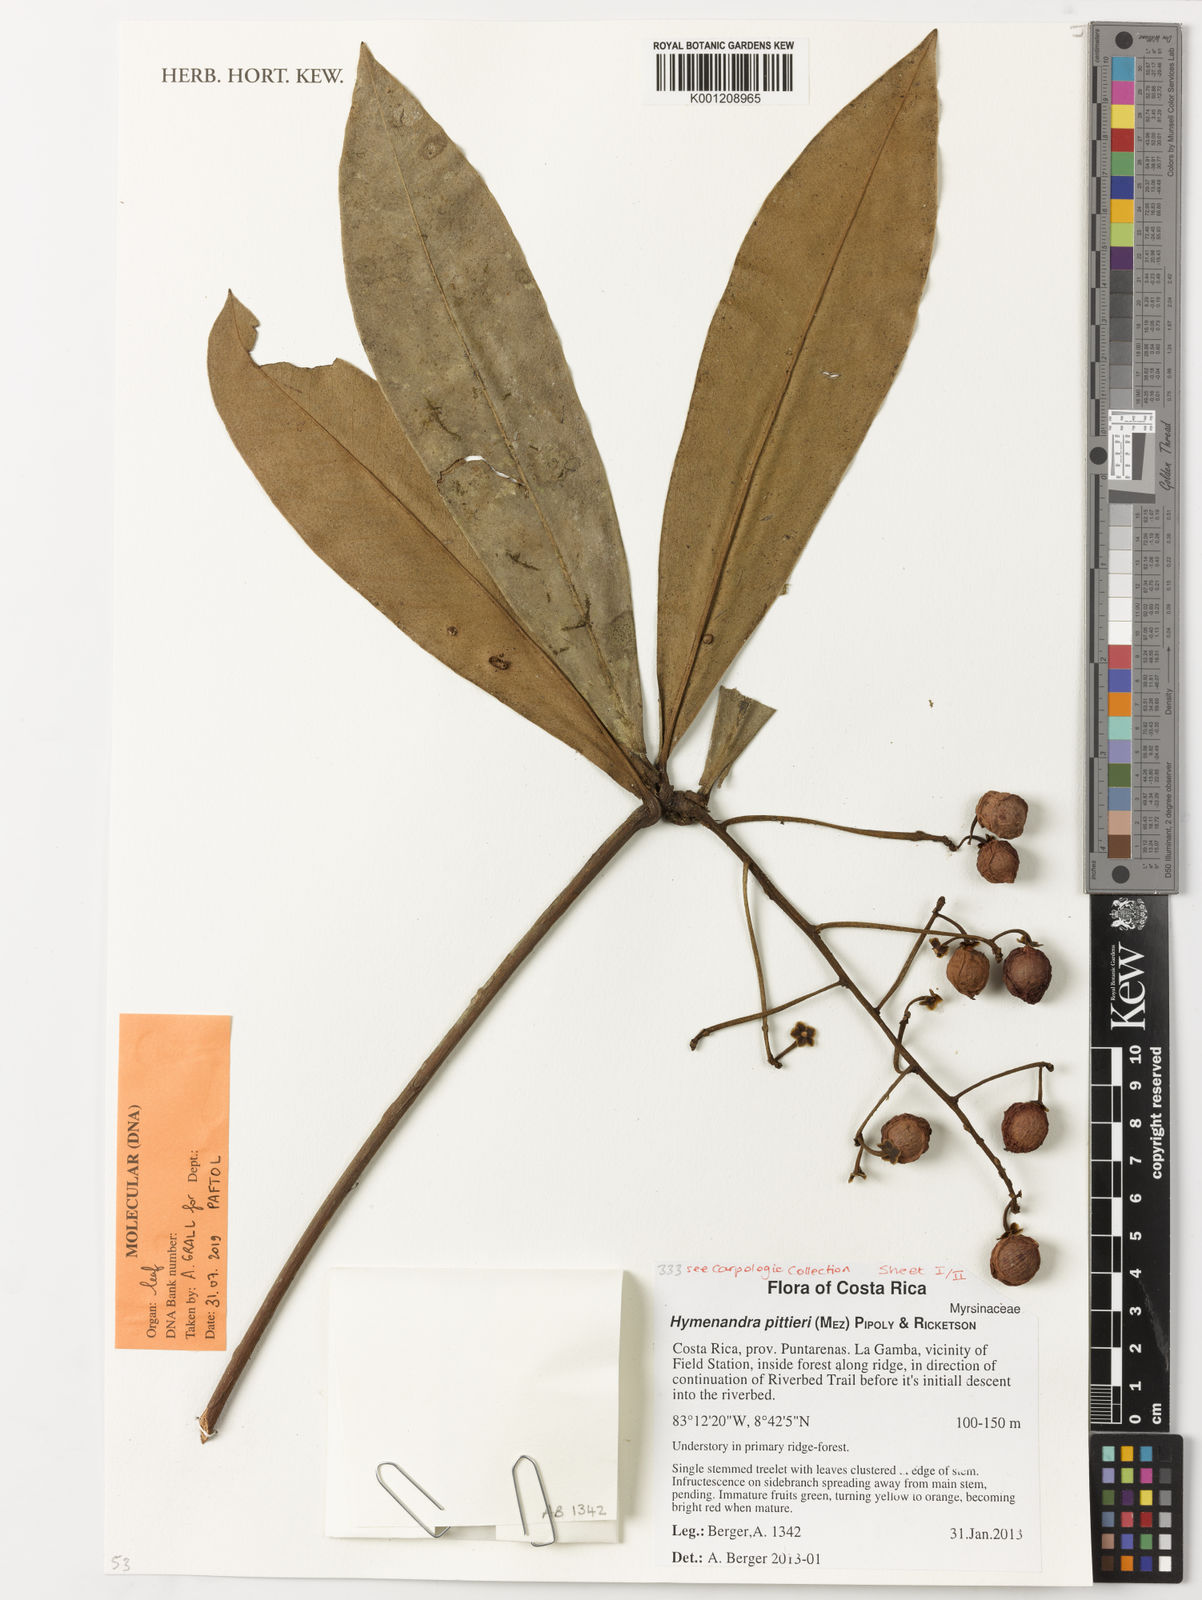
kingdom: Plantae
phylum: Tracheophyta
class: Magnoliopsida
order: Ericales
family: Primulaceae
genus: Hymenandra
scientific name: Hymenandra pittieri
